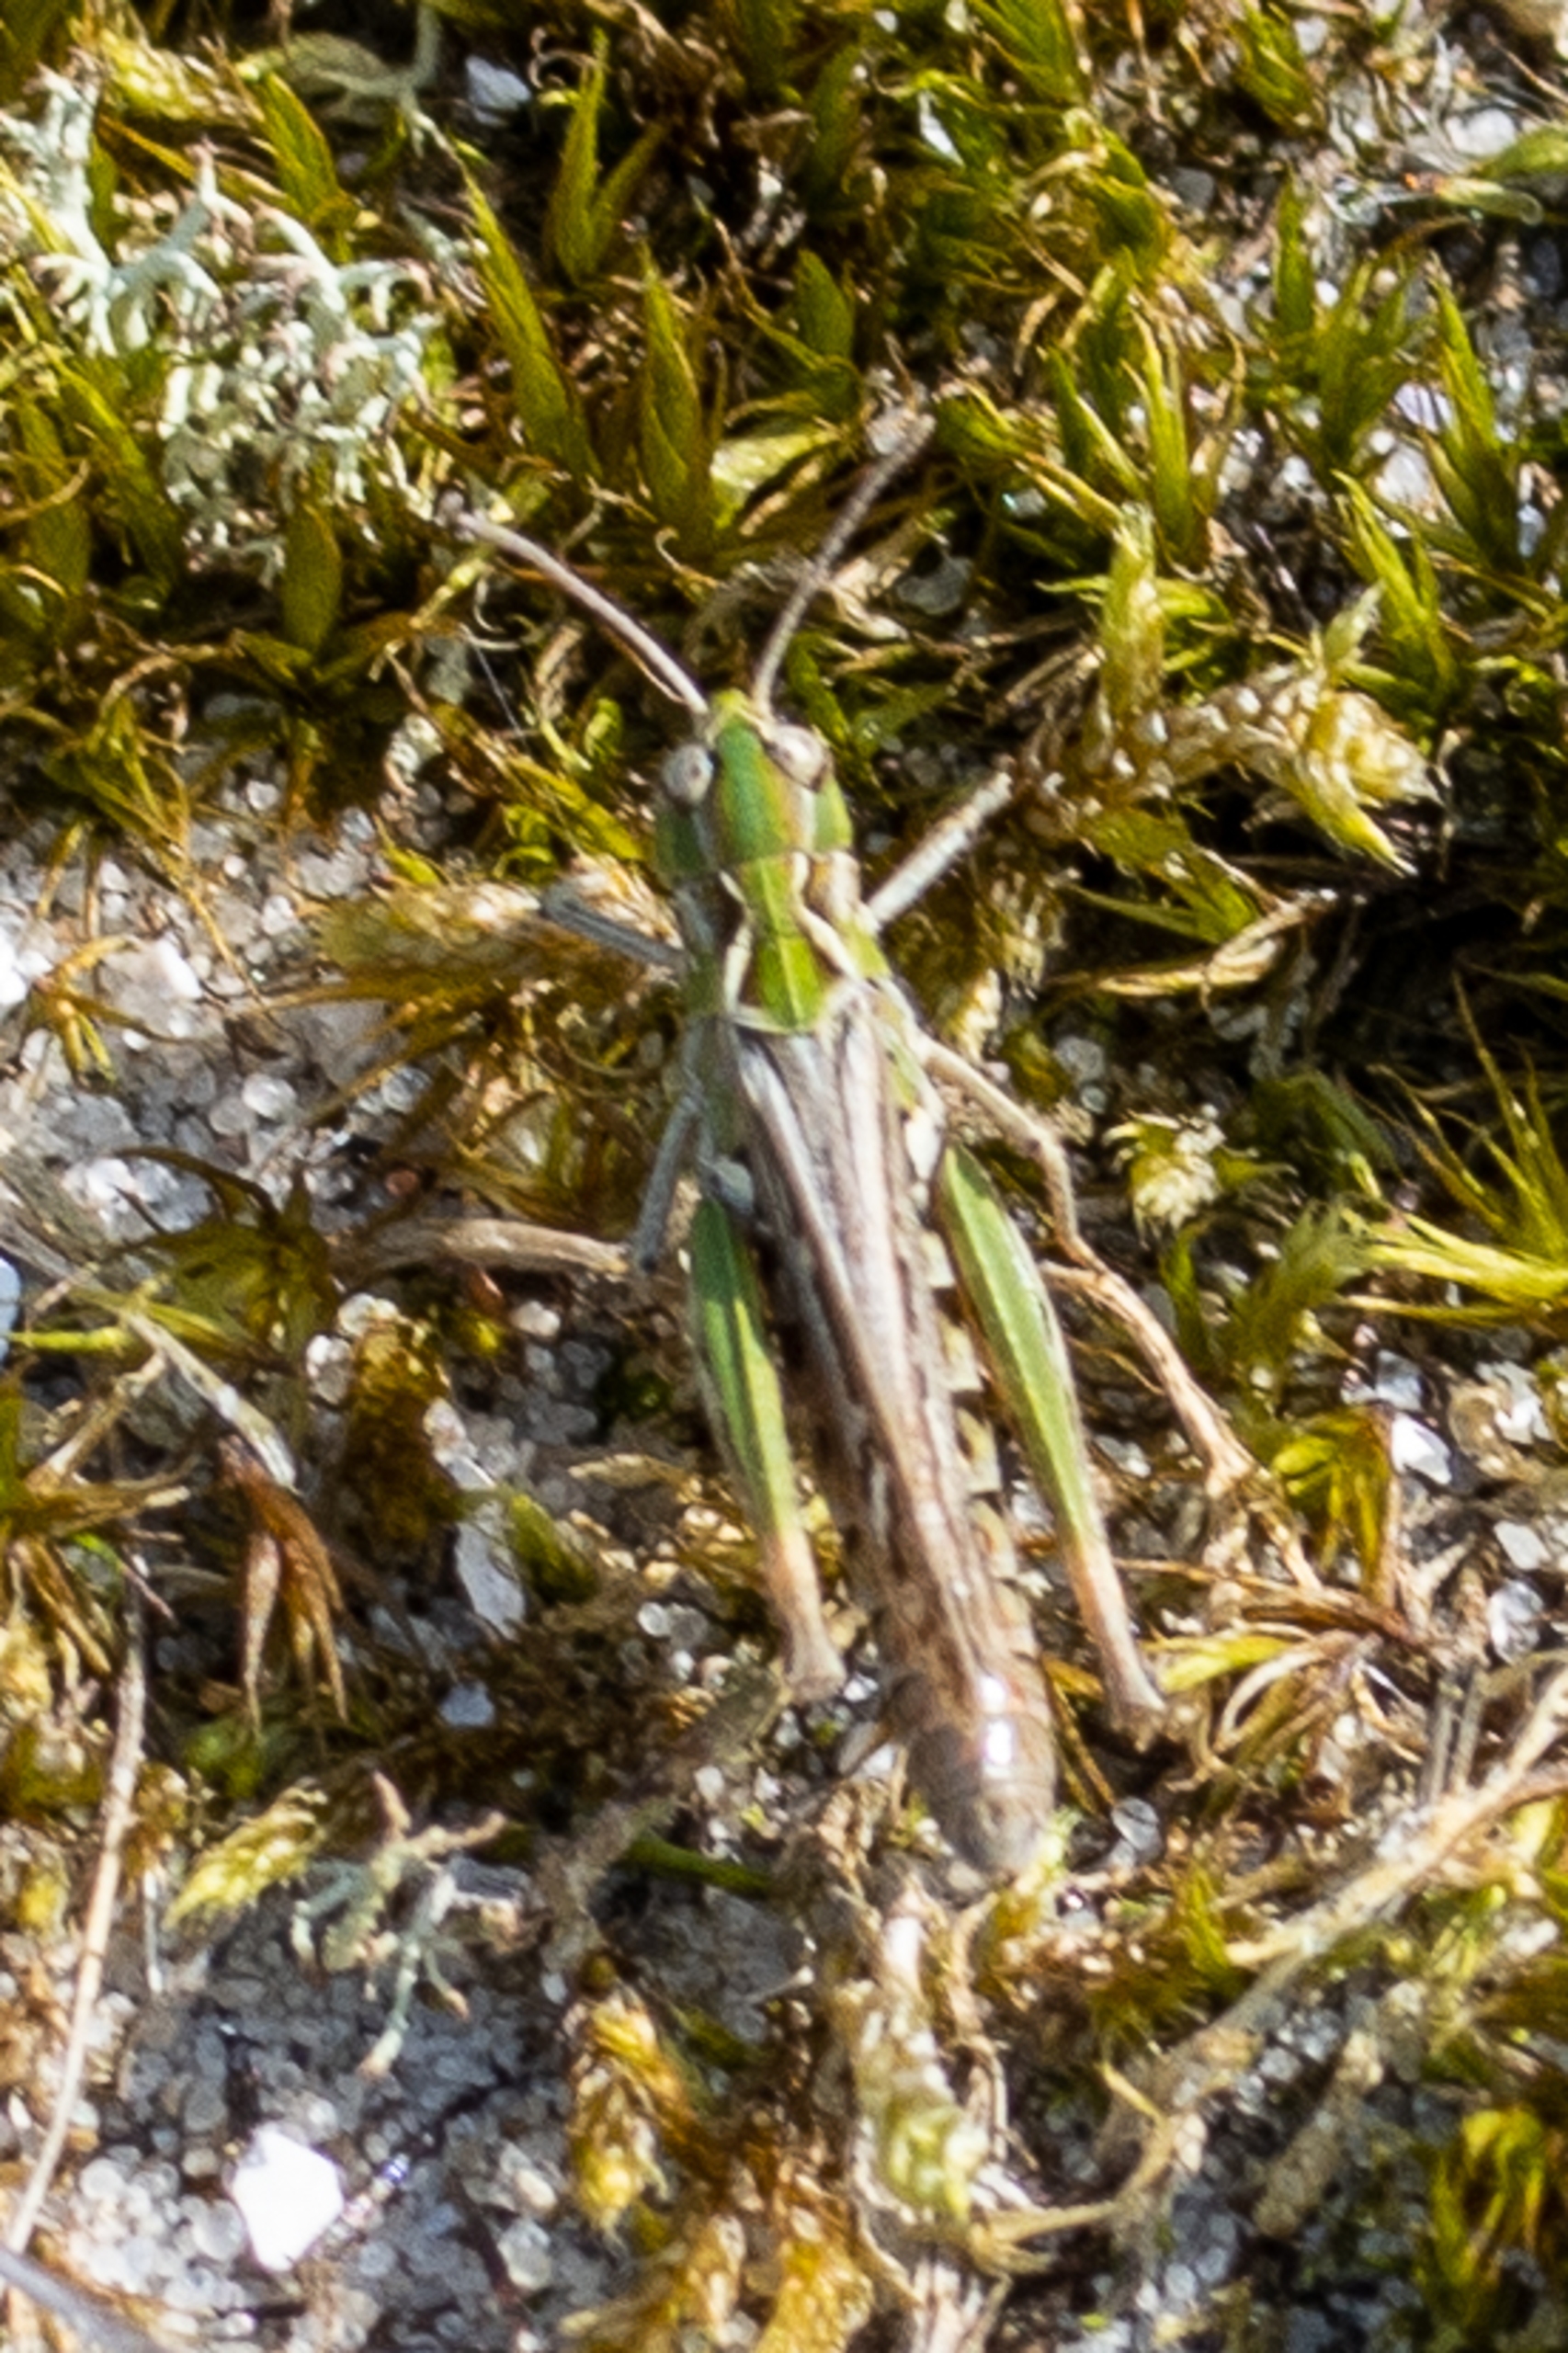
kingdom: Animalia
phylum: Arthropoda
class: Insecta
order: Orthoptera
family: Acrididae
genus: Myrmeleotettix
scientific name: Myrmeleotettix maculatus
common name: Køllegræshoppe
